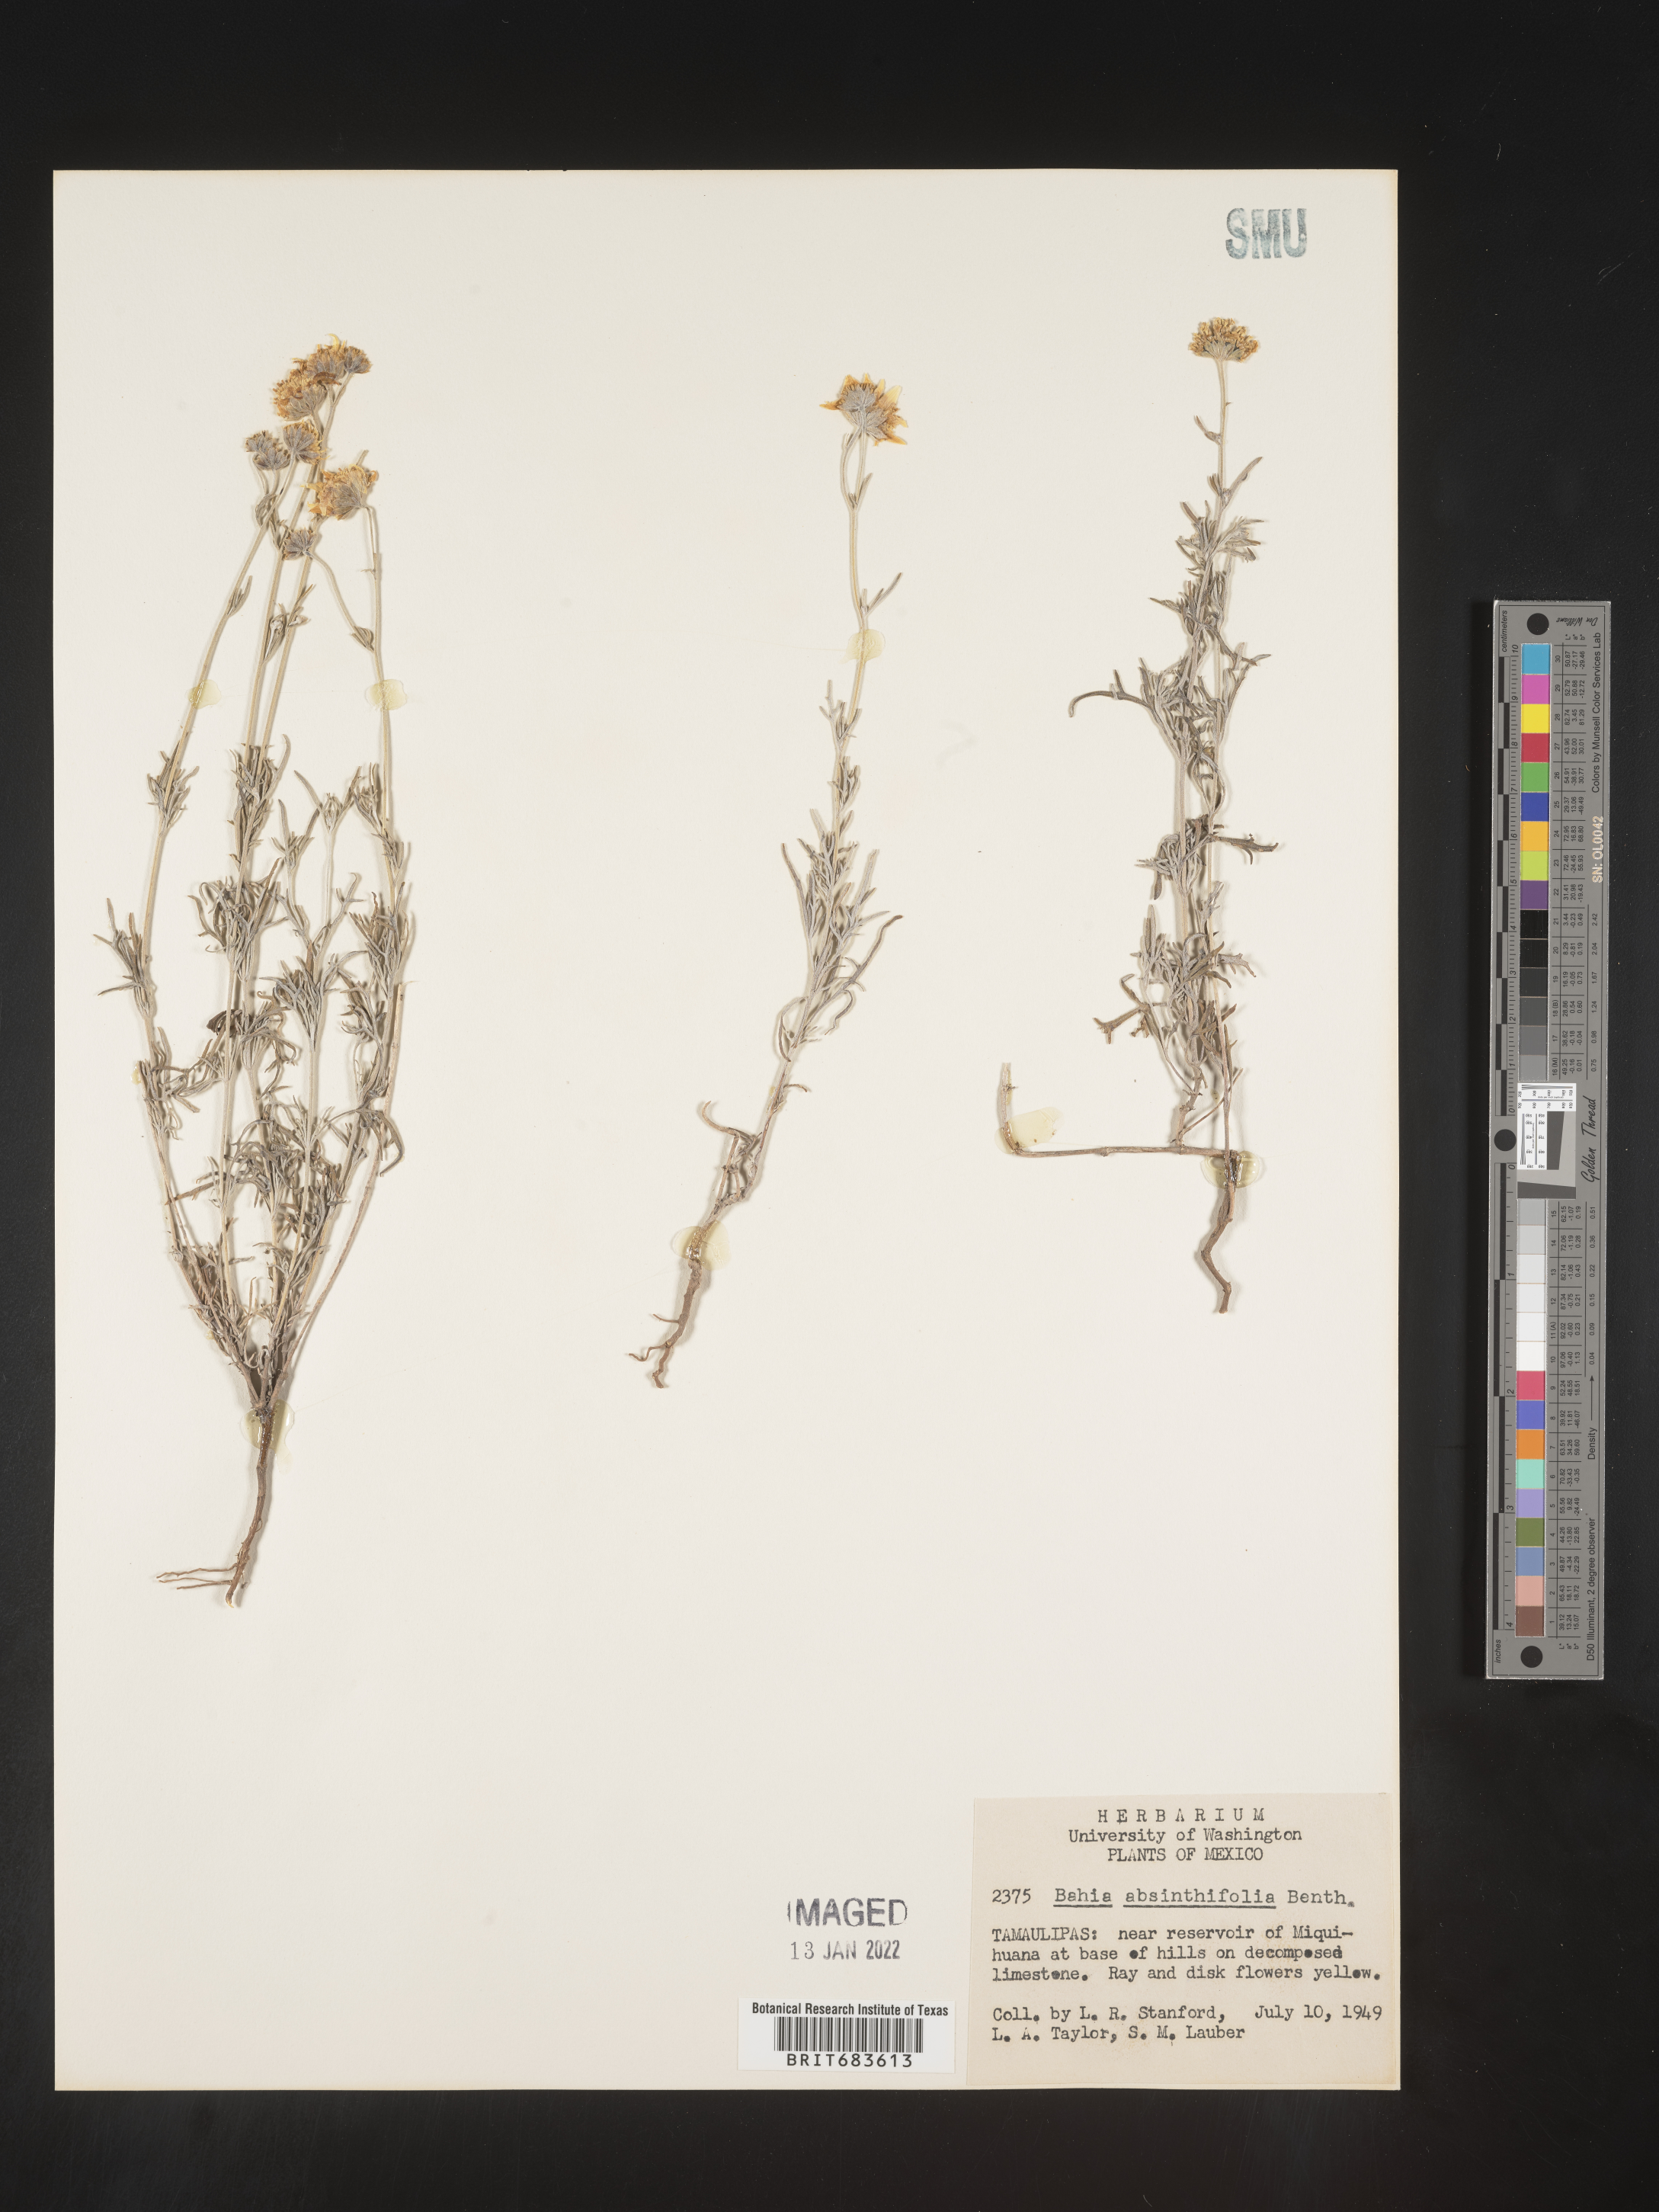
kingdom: Plantae
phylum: Tracheophyta
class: Magnoliopsida
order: Asterales
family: Asteraceae
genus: Picradeniopsis
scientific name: Picradeniopsis absinthifolia
